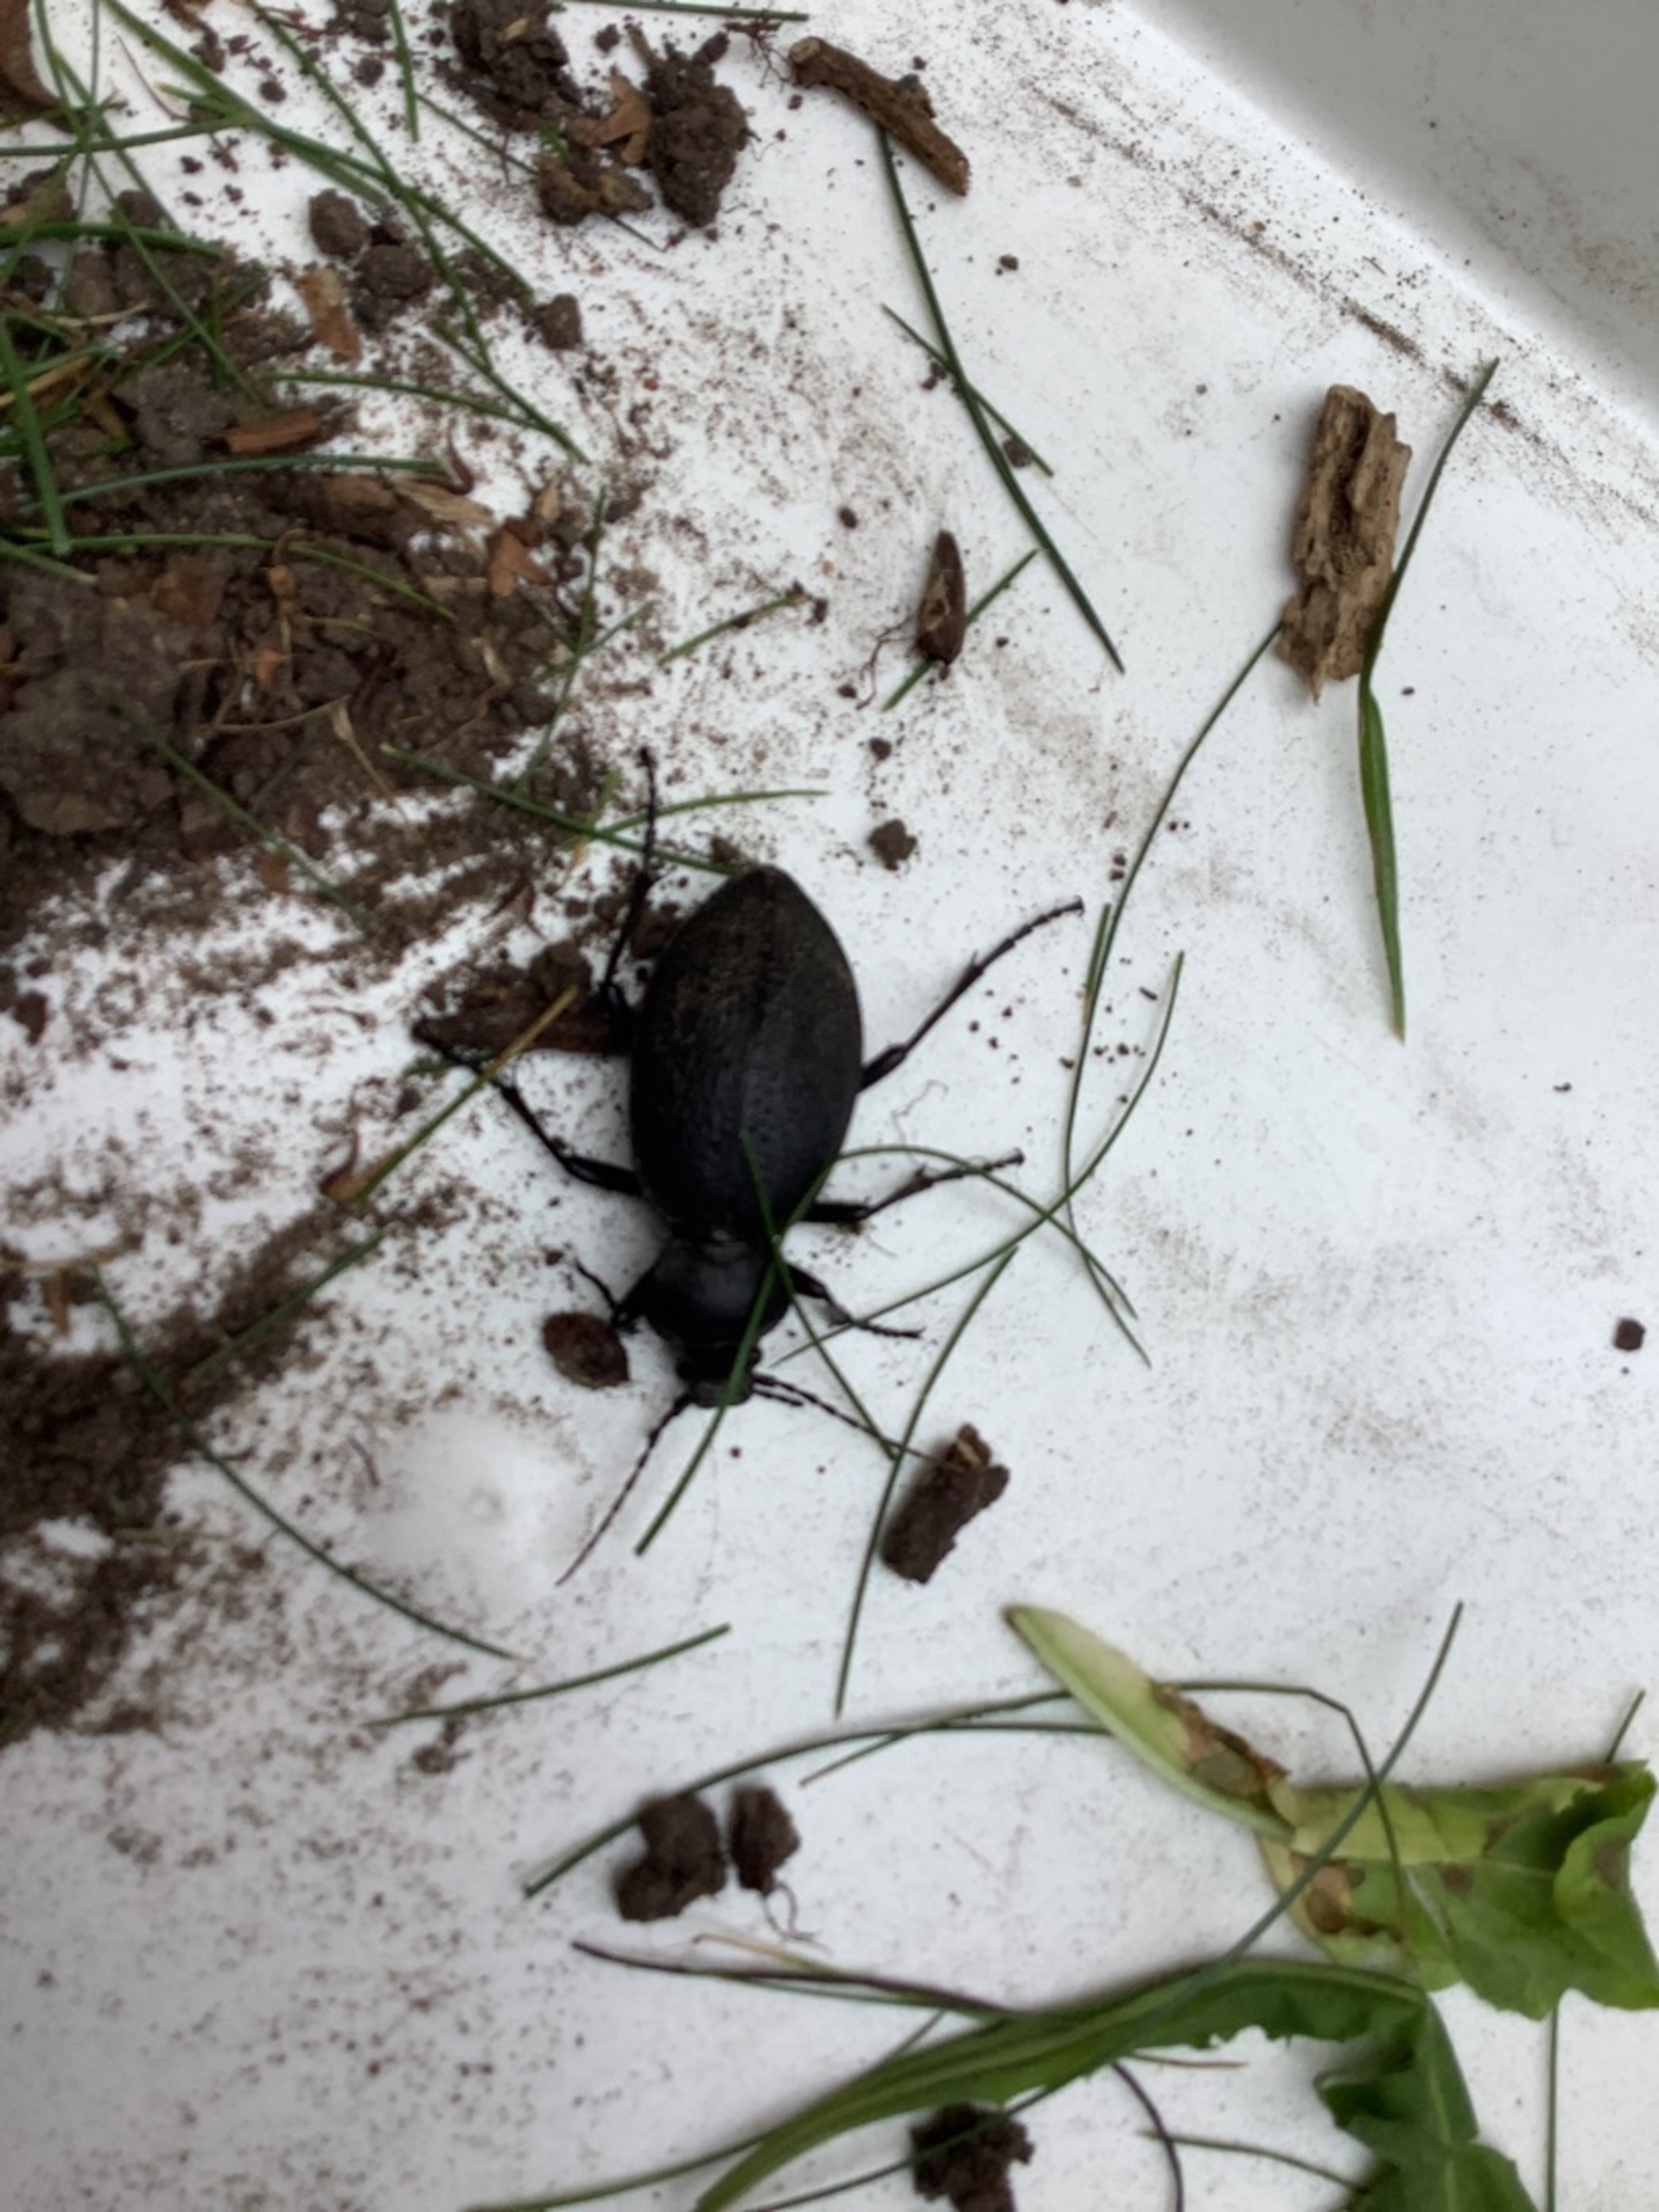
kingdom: Animalia
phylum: Arthropoda
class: Insecta
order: Coleoptera
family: Carabidae
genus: Carabus
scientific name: Carabus coriaceus
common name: Læderløber
